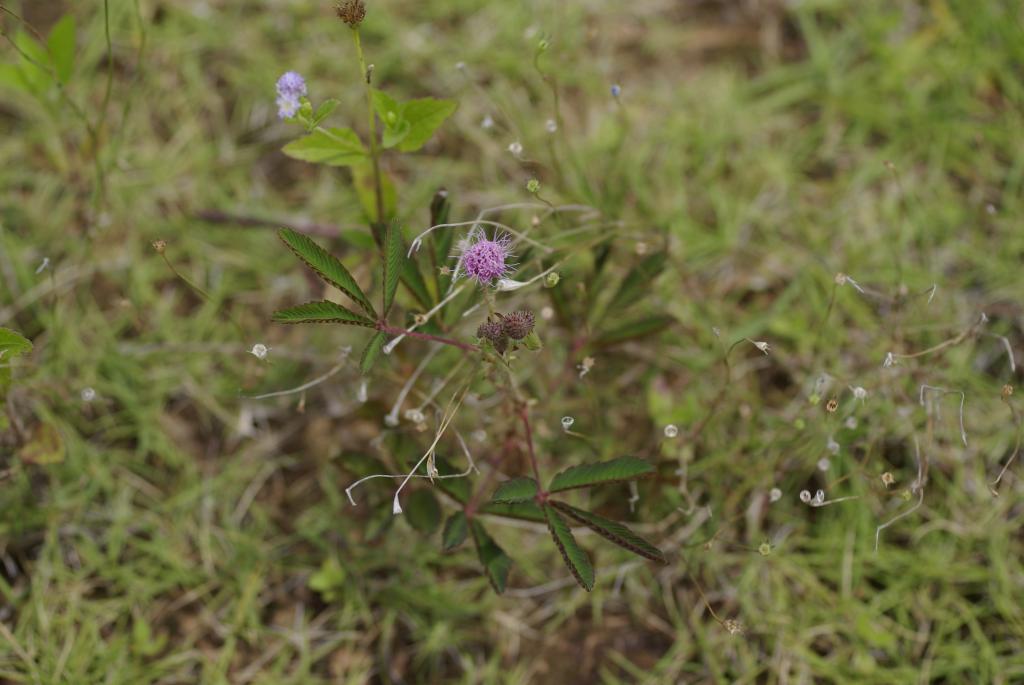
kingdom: Plantae
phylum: Tracheophyta
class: Magnoliopsida
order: Fabales
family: Fabaceae
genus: Mimosa
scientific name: Mimosa pudica
